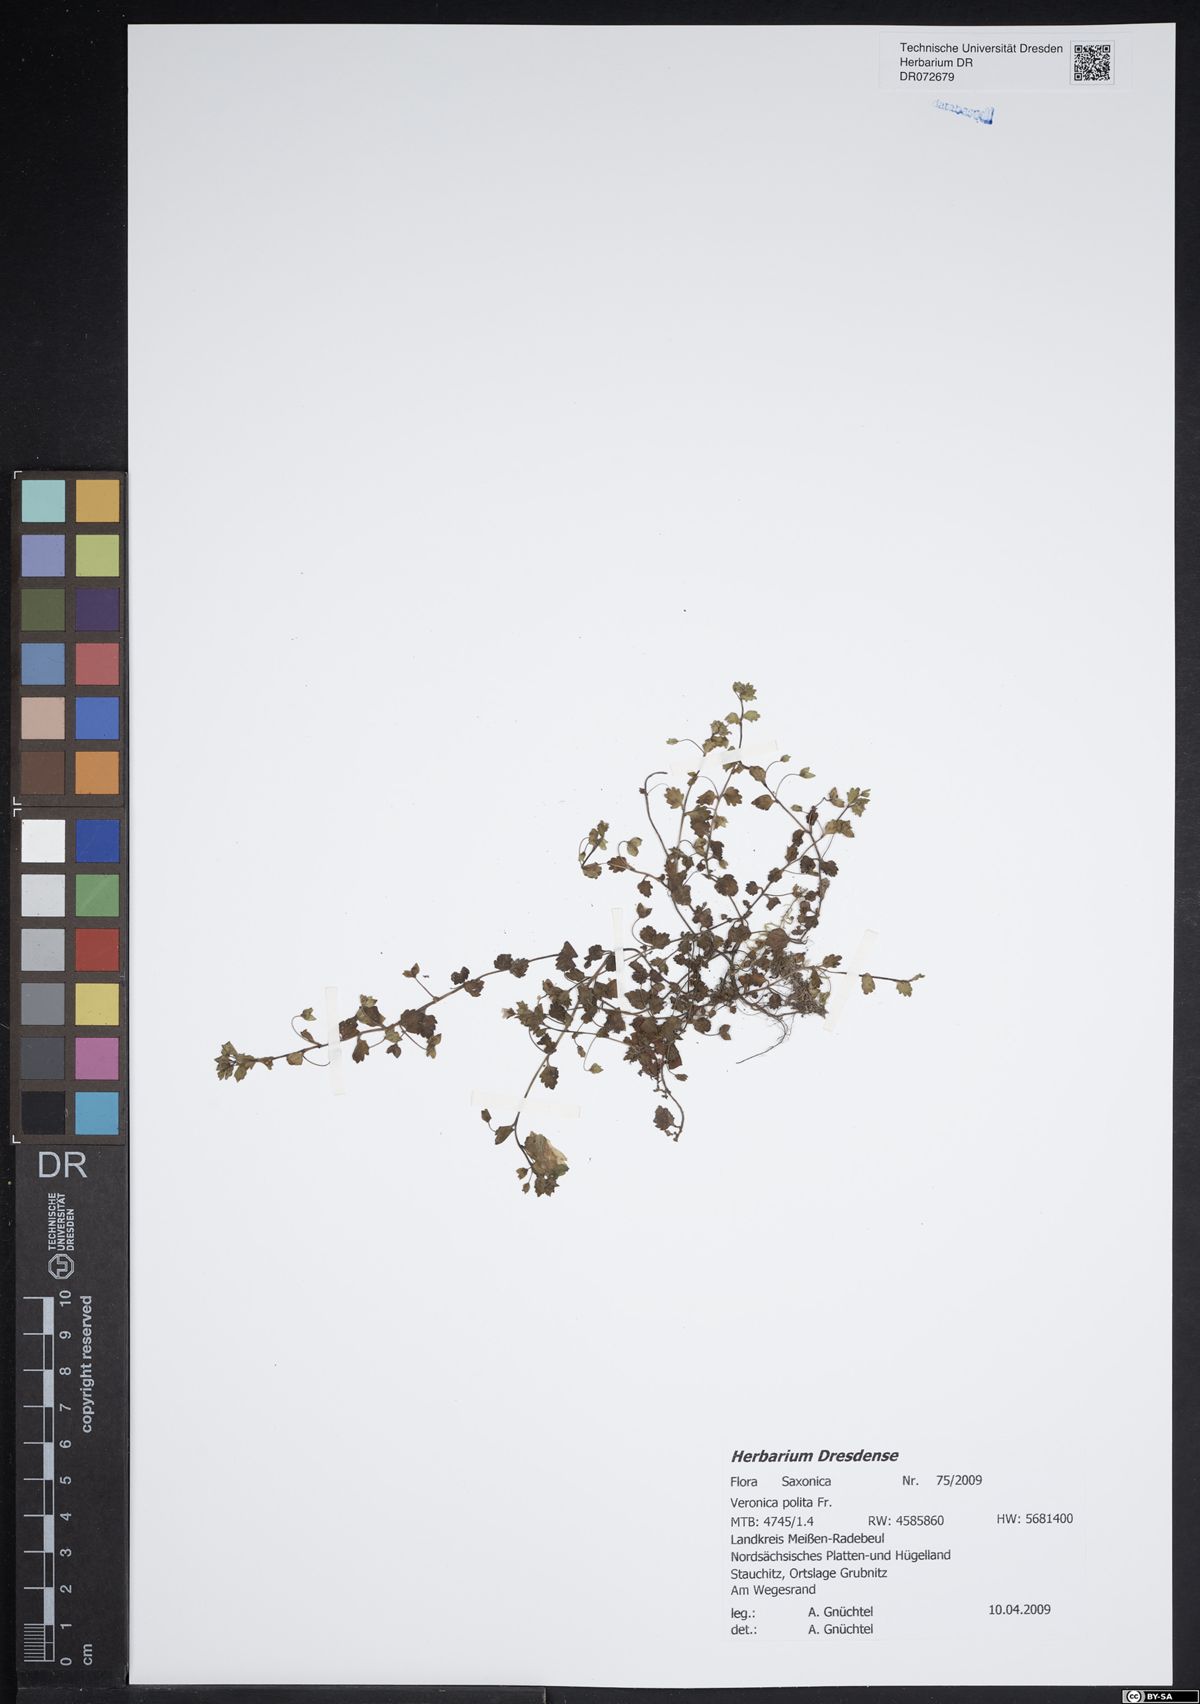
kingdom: Plantae
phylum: Tracheophyta
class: Magnoliopsida
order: Lamiales
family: Plantaginaceae
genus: Veronica
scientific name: Veronica polita
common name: Grey field-speedwell
